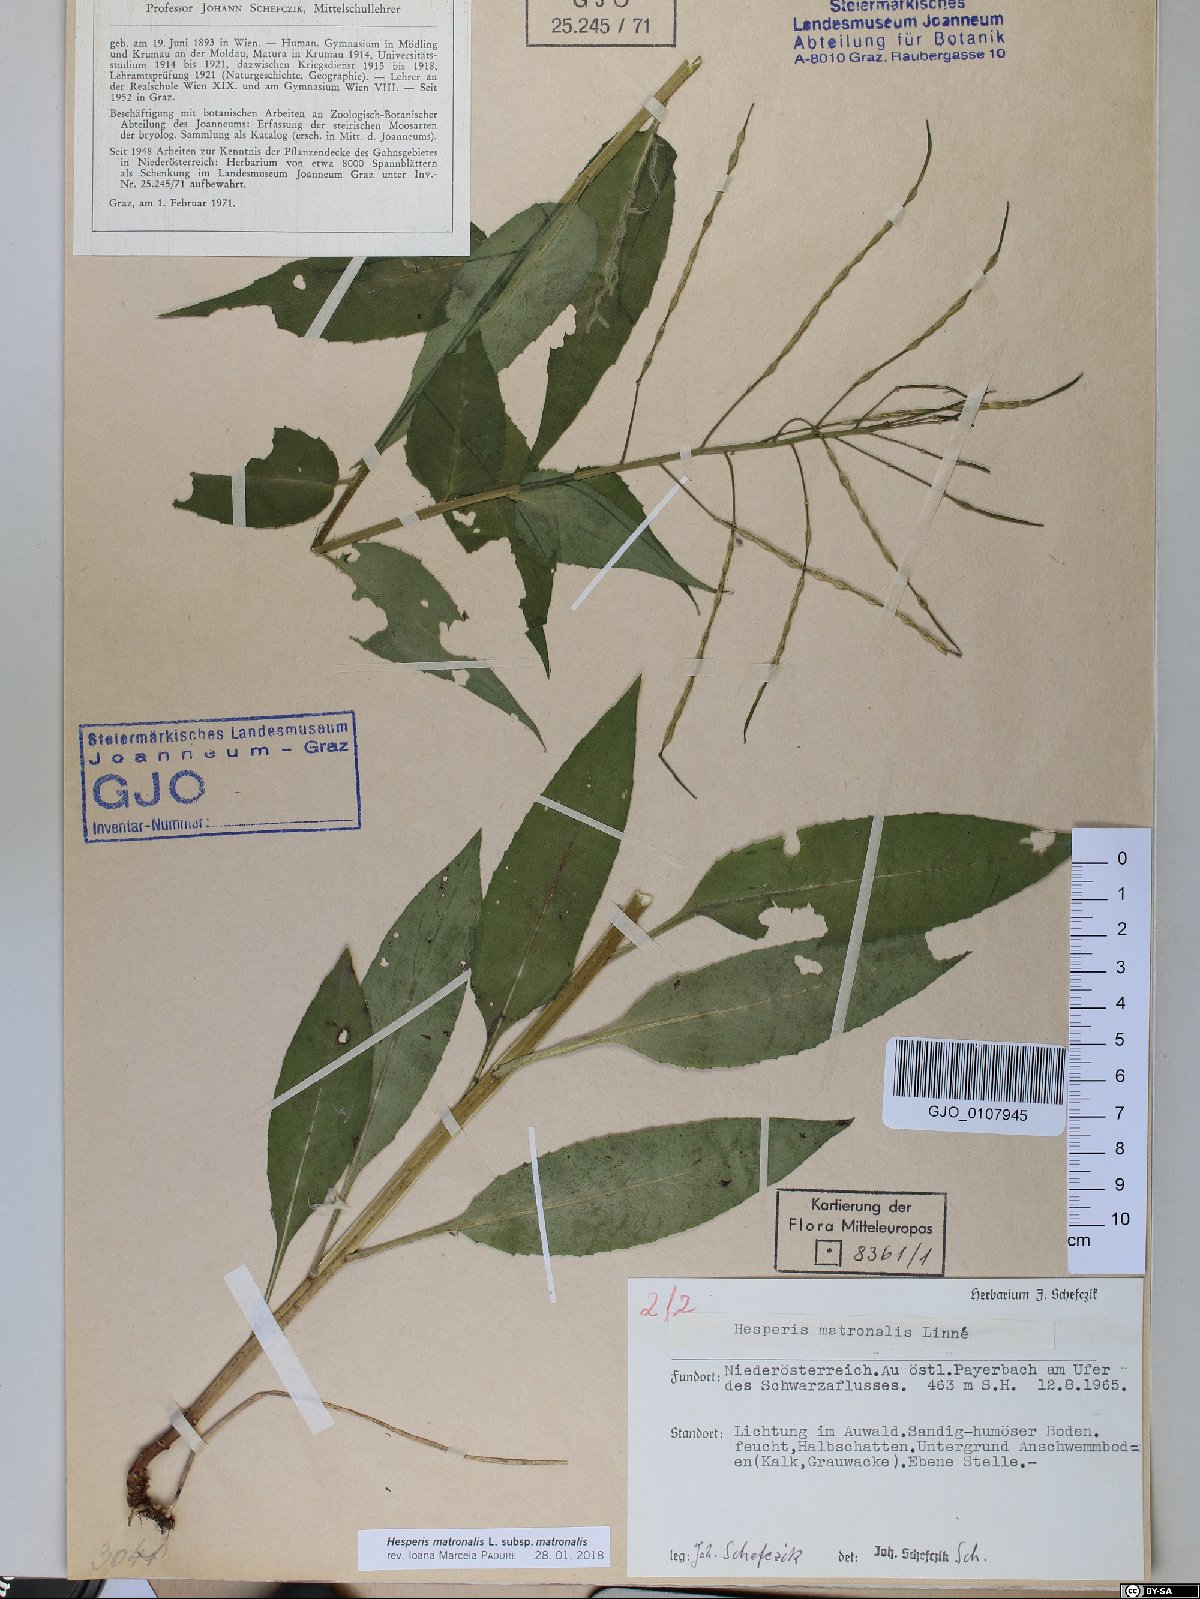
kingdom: Plantae
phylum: Tracheophyta
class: Magnoliopsida
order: Brassicales
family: Brassicaceae
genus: Hesperis
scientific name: Hesperis matronalis
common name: Dame's-violet
